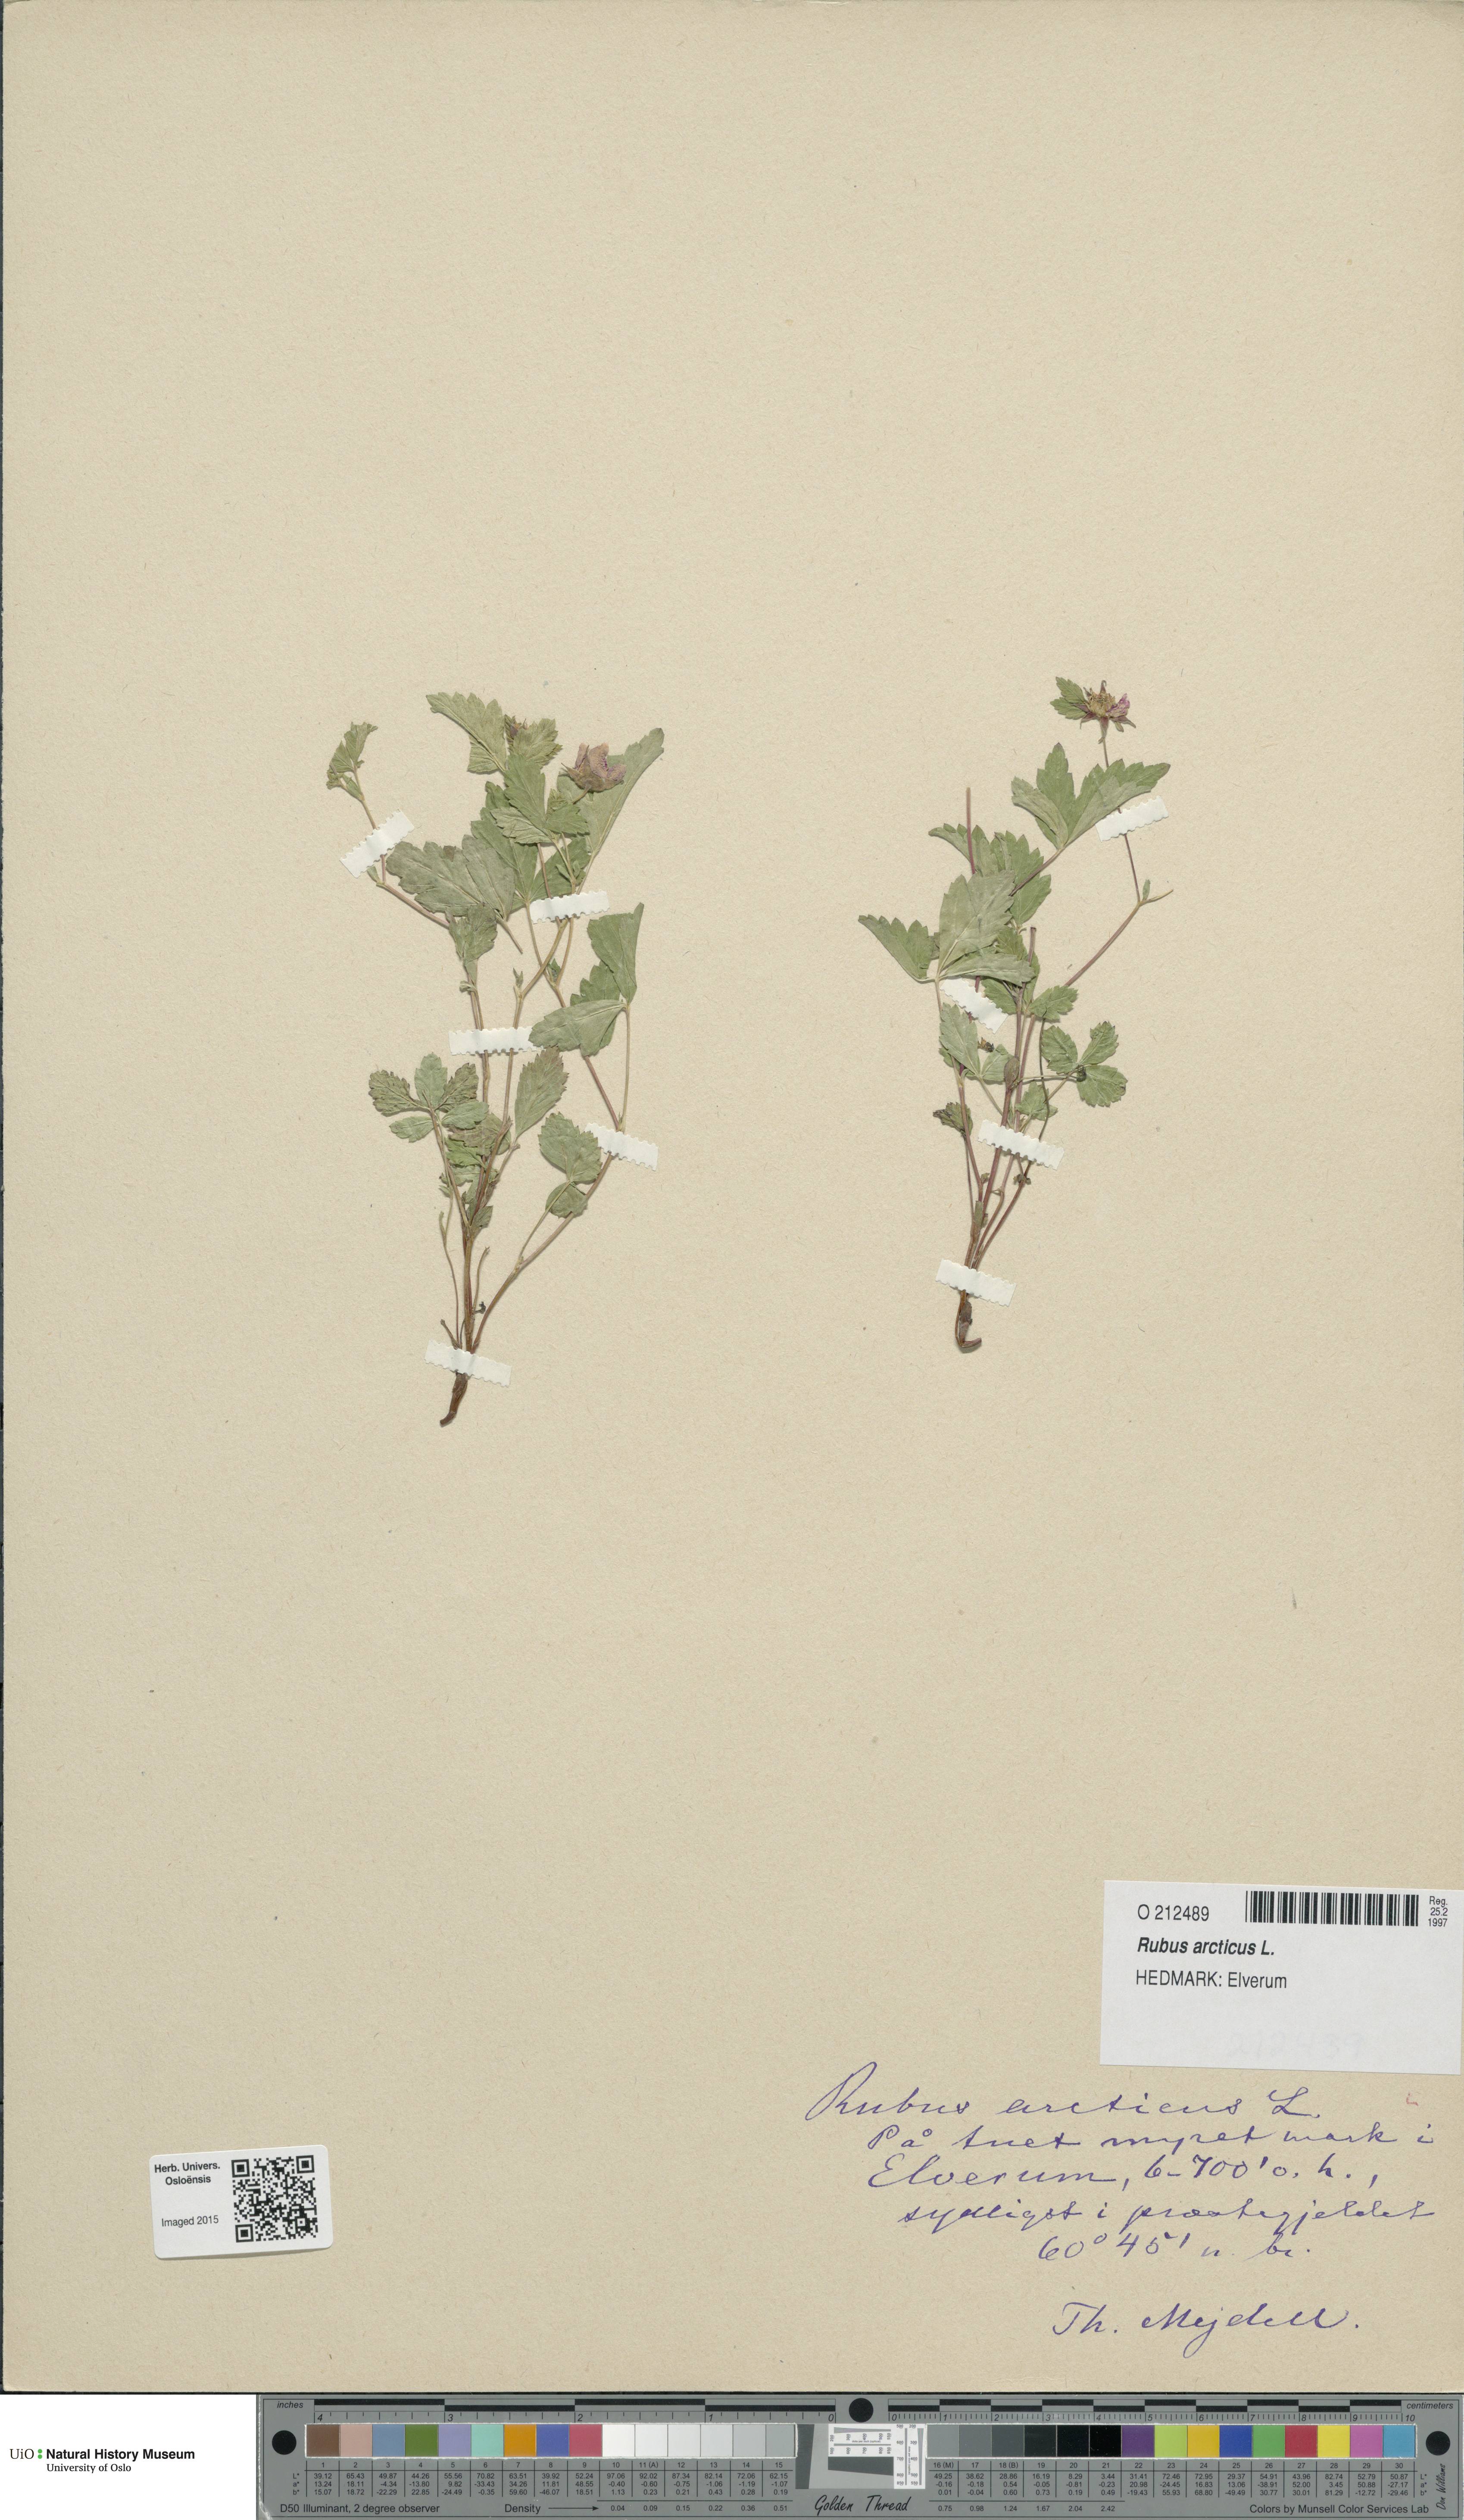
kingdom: Plantae
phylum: Tracheophyta
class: Magnoliopsida
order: Rosales
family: Rosaceae
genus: Rubus
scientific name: Rubus arcticus
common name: Arctic bramble
